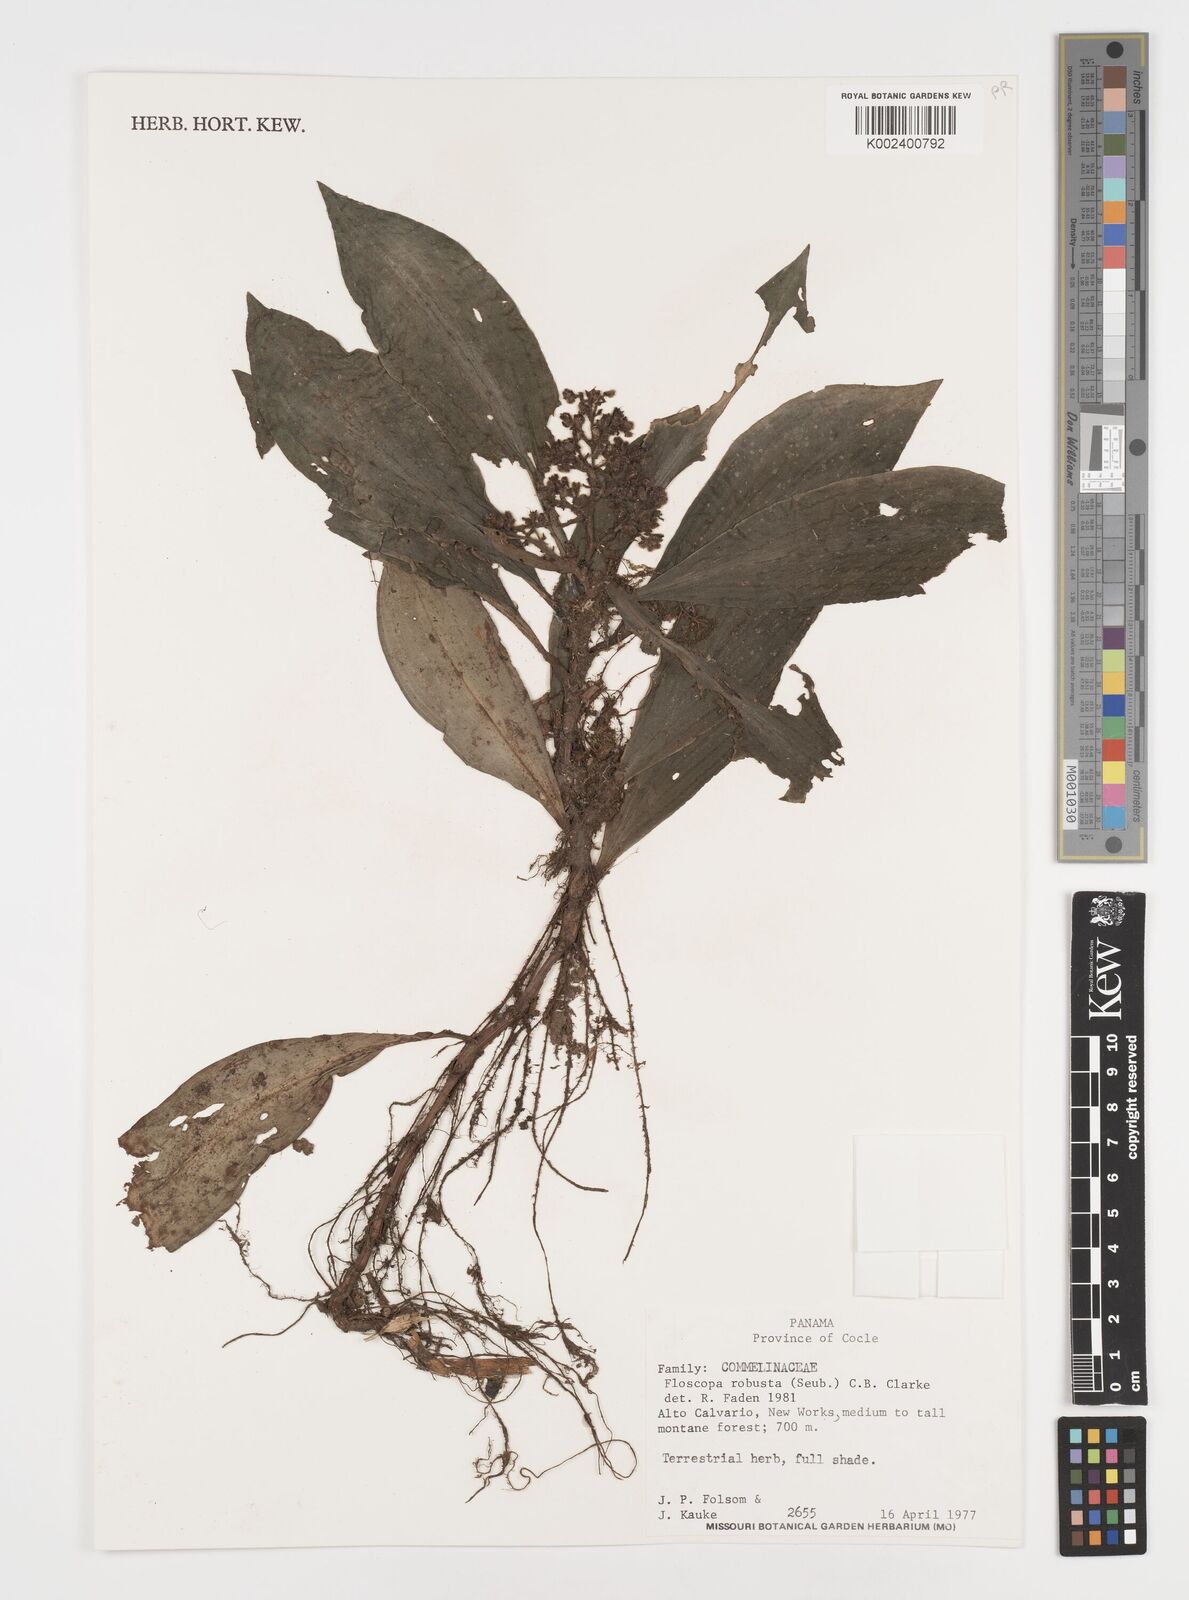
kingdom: Plantae
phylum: Tracheophyta
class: Liliopsida
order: Commelinales
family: Commelinaceae
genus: Floscopa
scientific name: Floscopa robusta
